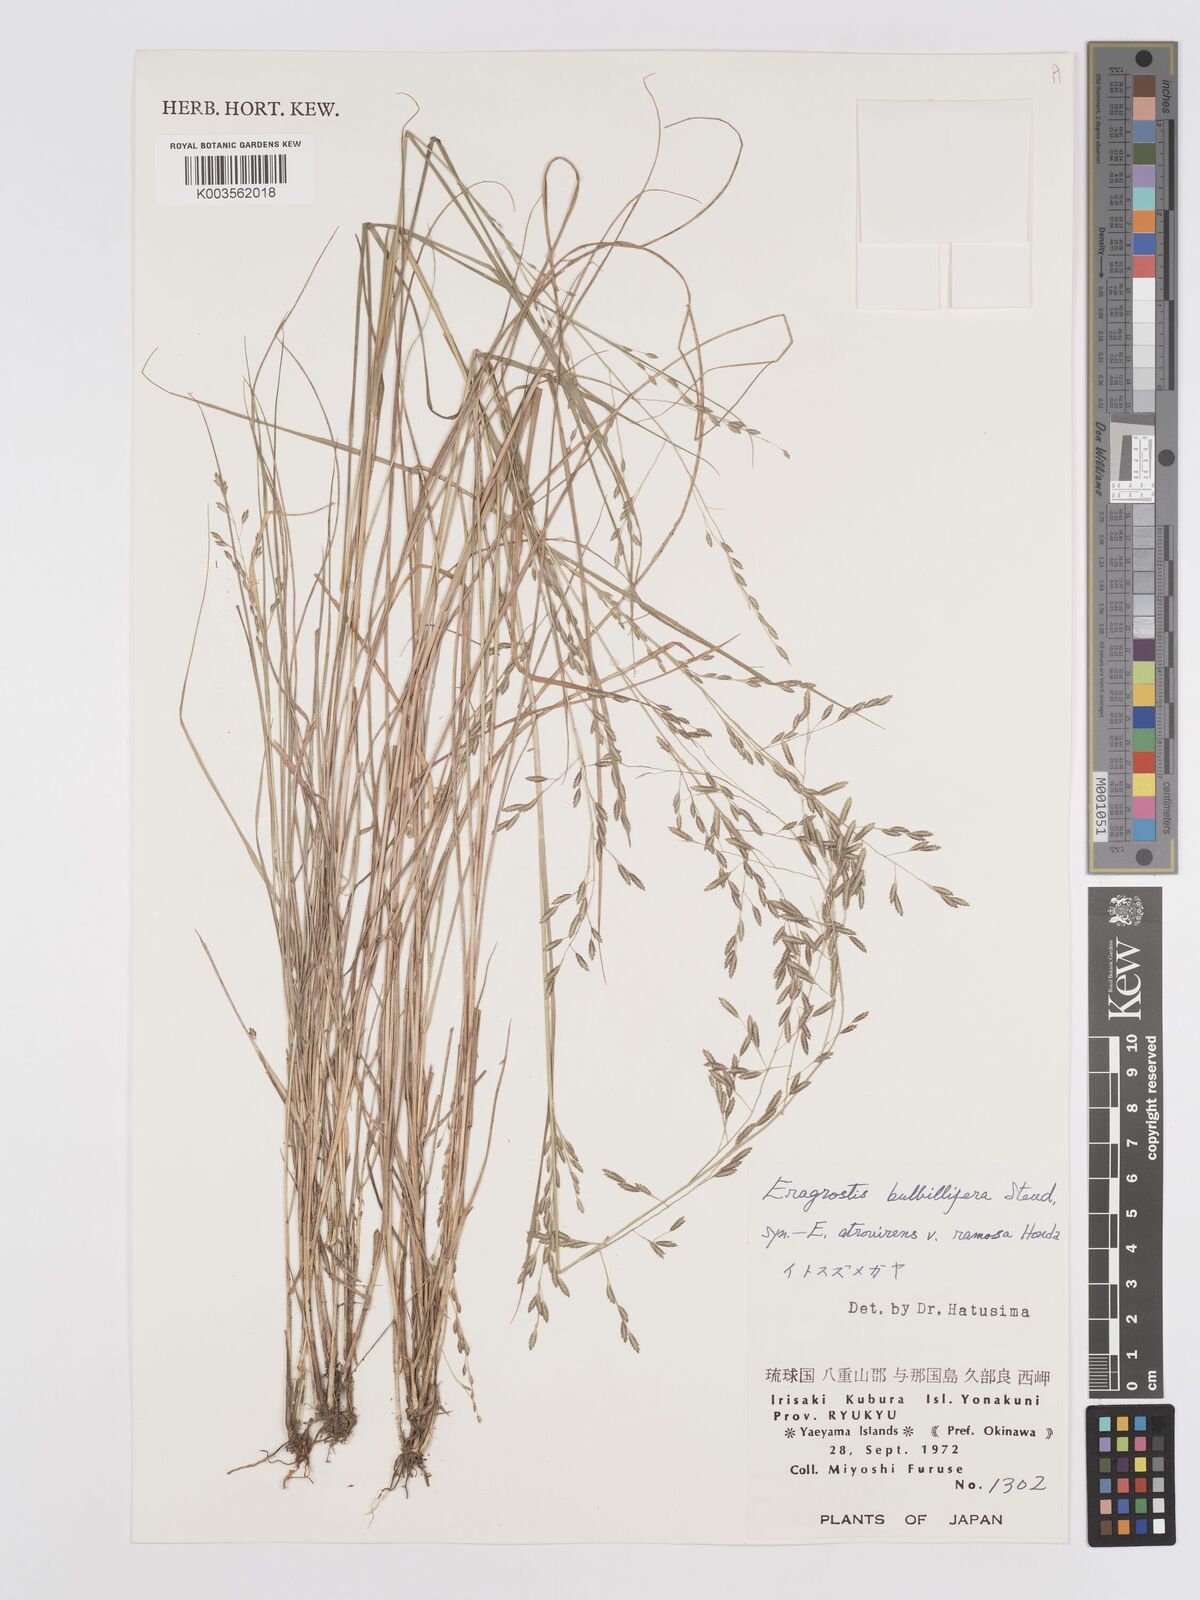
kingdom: Plantae
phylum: Tracheophyta
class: Liliopsida
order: Poales
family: Poaceae
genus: Eragrostis
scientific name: Eragrostis cumingii
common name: Cuming's lovegrass
